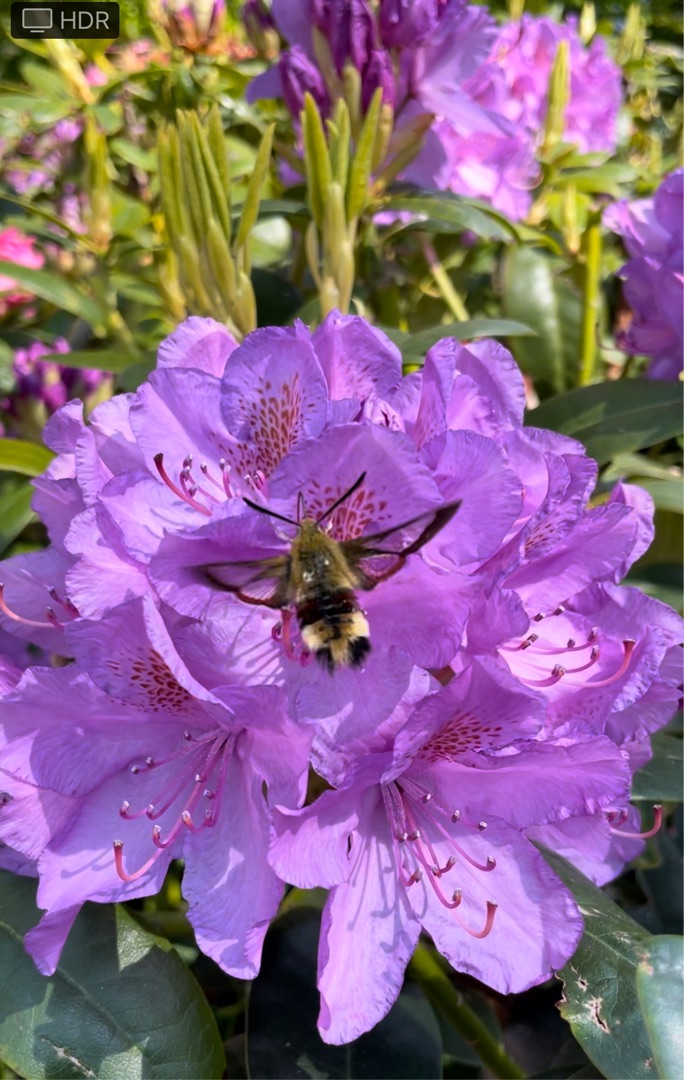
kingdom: Animalia
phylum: Arthropoda
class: Insecta
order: Lepidoptera
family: Sphingidae
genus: Hemaris
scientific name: Hemaris fuciformis
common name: Bredrandet humlebisværmer
